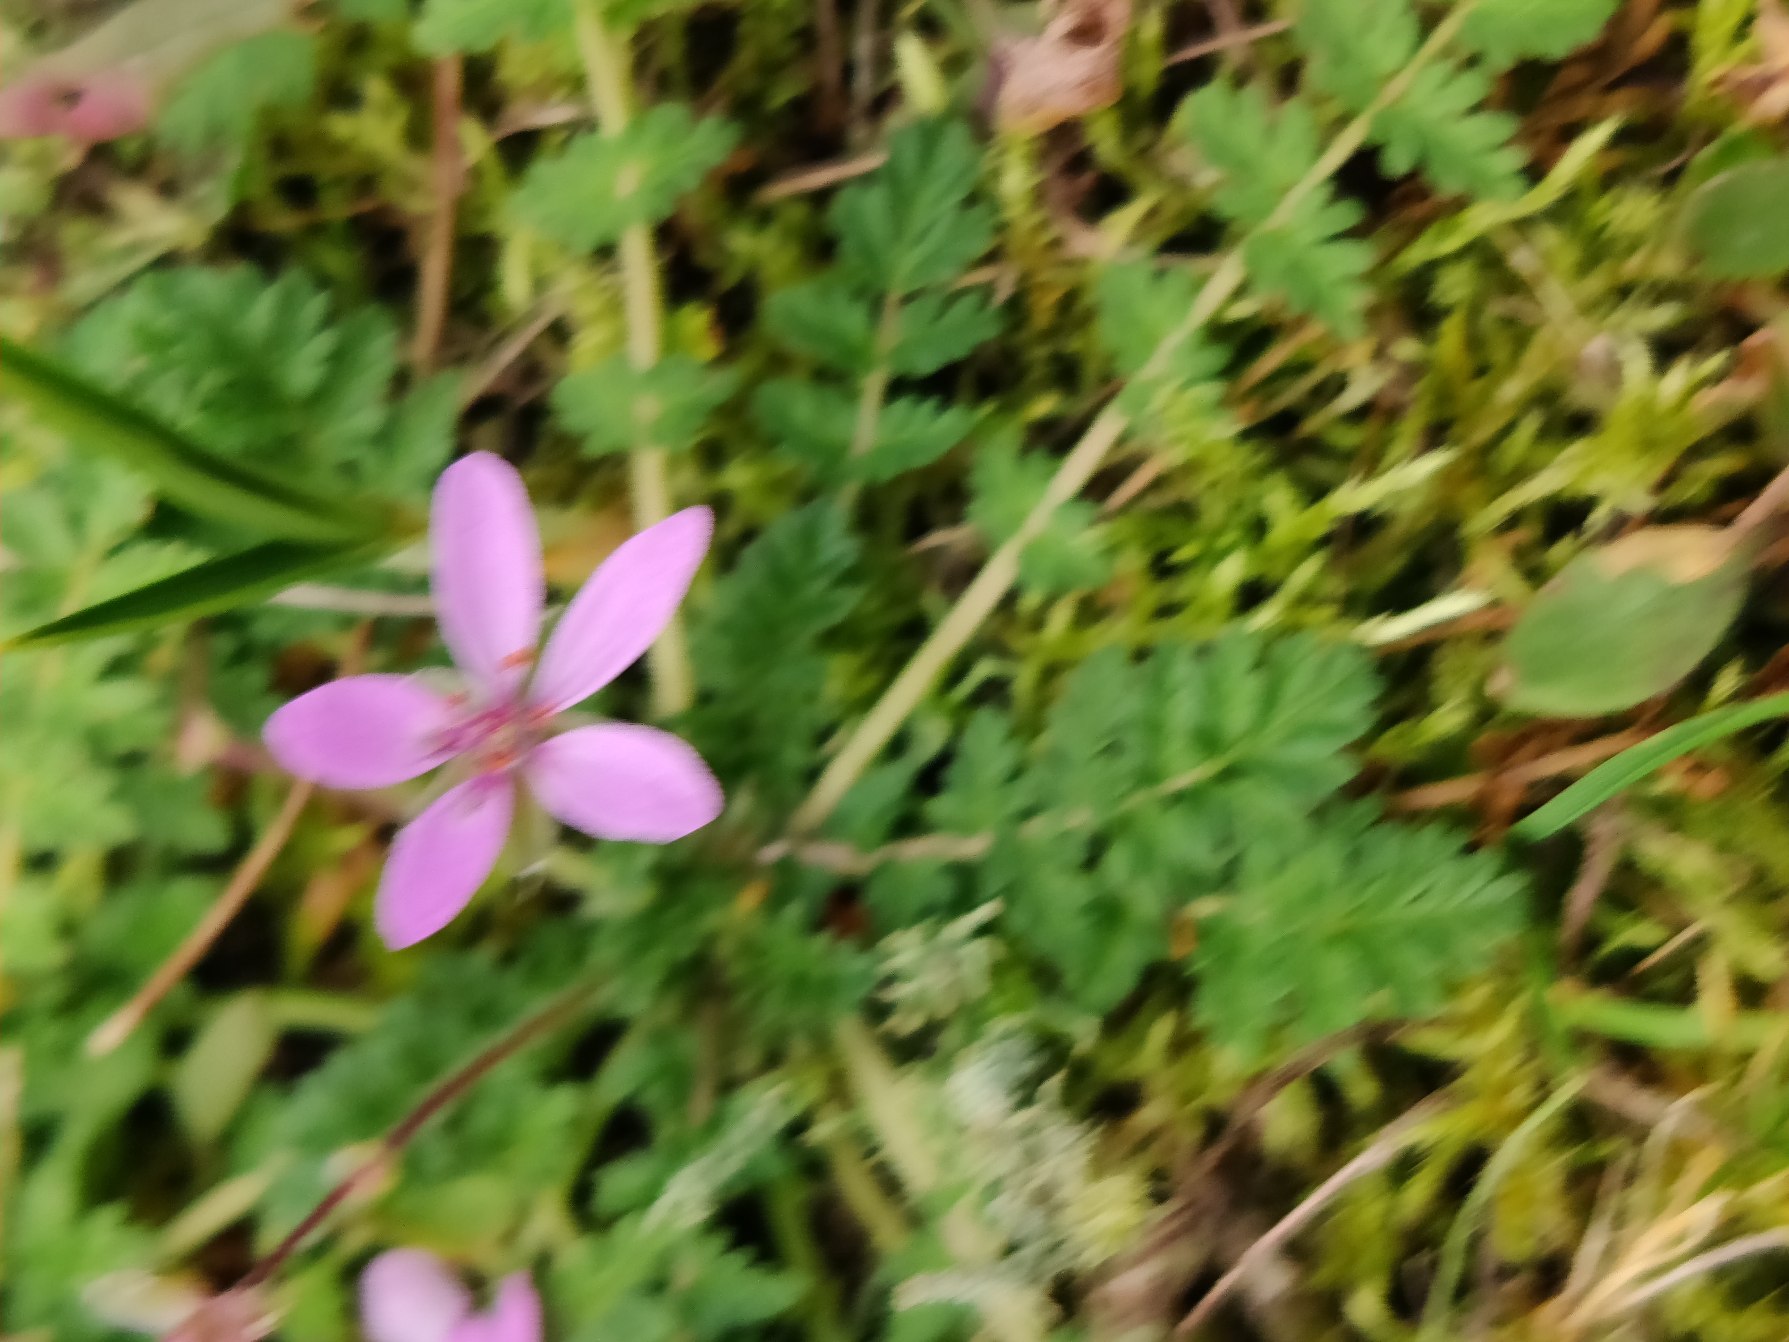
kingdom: Plantae
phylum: Tracheophyta
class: Magnoliopsida
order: Geraniales
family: Geraniaceae
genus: Erodium
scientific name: Erodium cicutarium
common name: Hejrenæb
